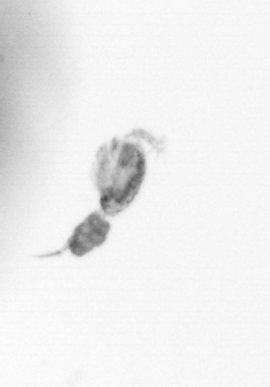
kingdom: Animalia
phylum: Arthropoda
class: Copepoda
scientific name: Copepoda
